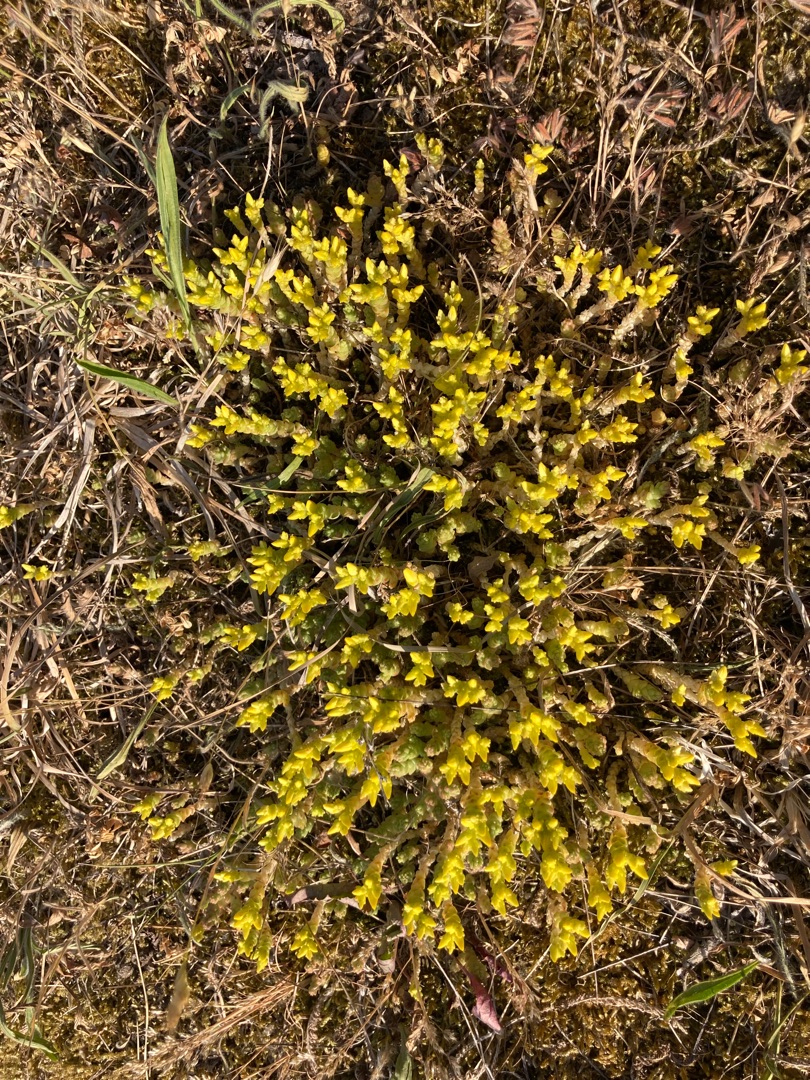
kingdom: Plantae
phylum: Tracheophyta
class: Magnoliopsida
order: Saxifragales
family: Crassulaceae
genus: Sedum
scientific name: Sedum acre
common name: Bidende stenurt
